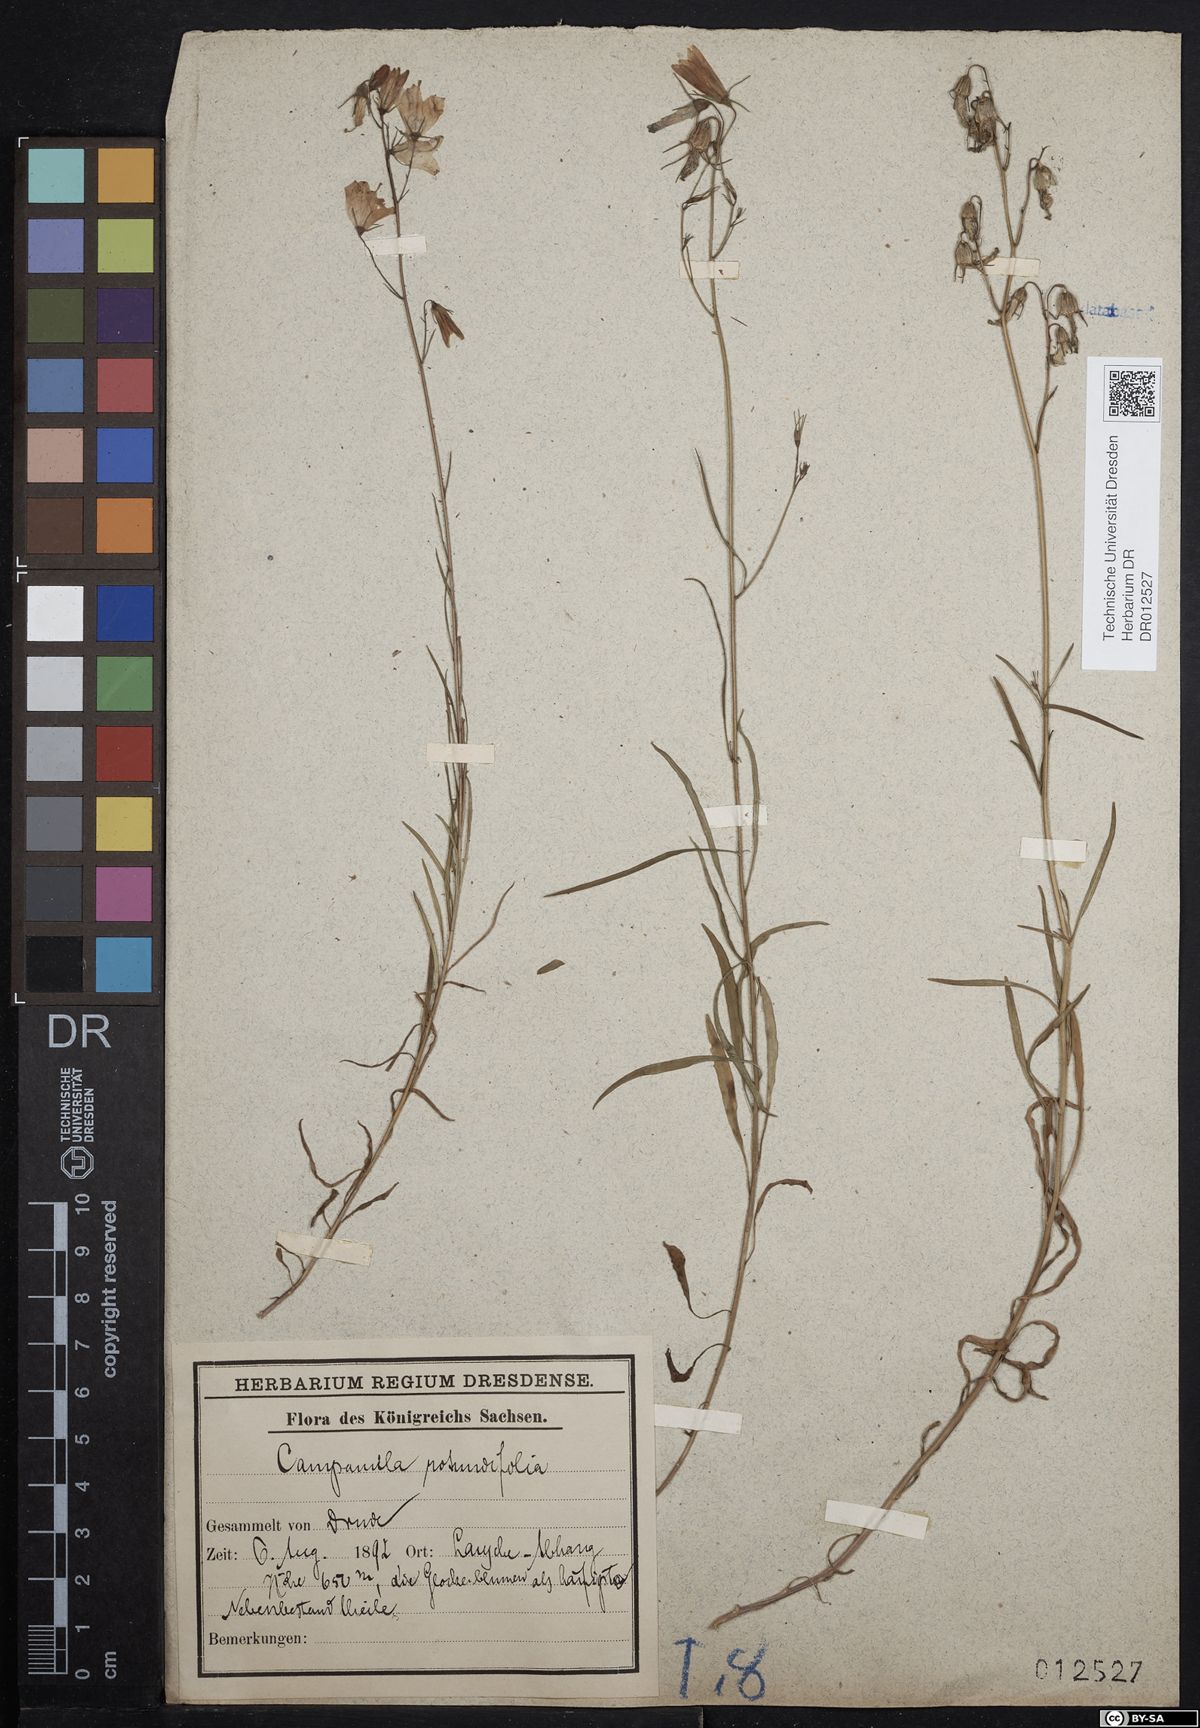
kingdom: Plantae
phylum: Tracheophyta
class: Magnoliopsida
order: Asterales
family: Campanulaceae
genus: Campanula
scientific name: Campanula rotundifolia
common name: Harebell
